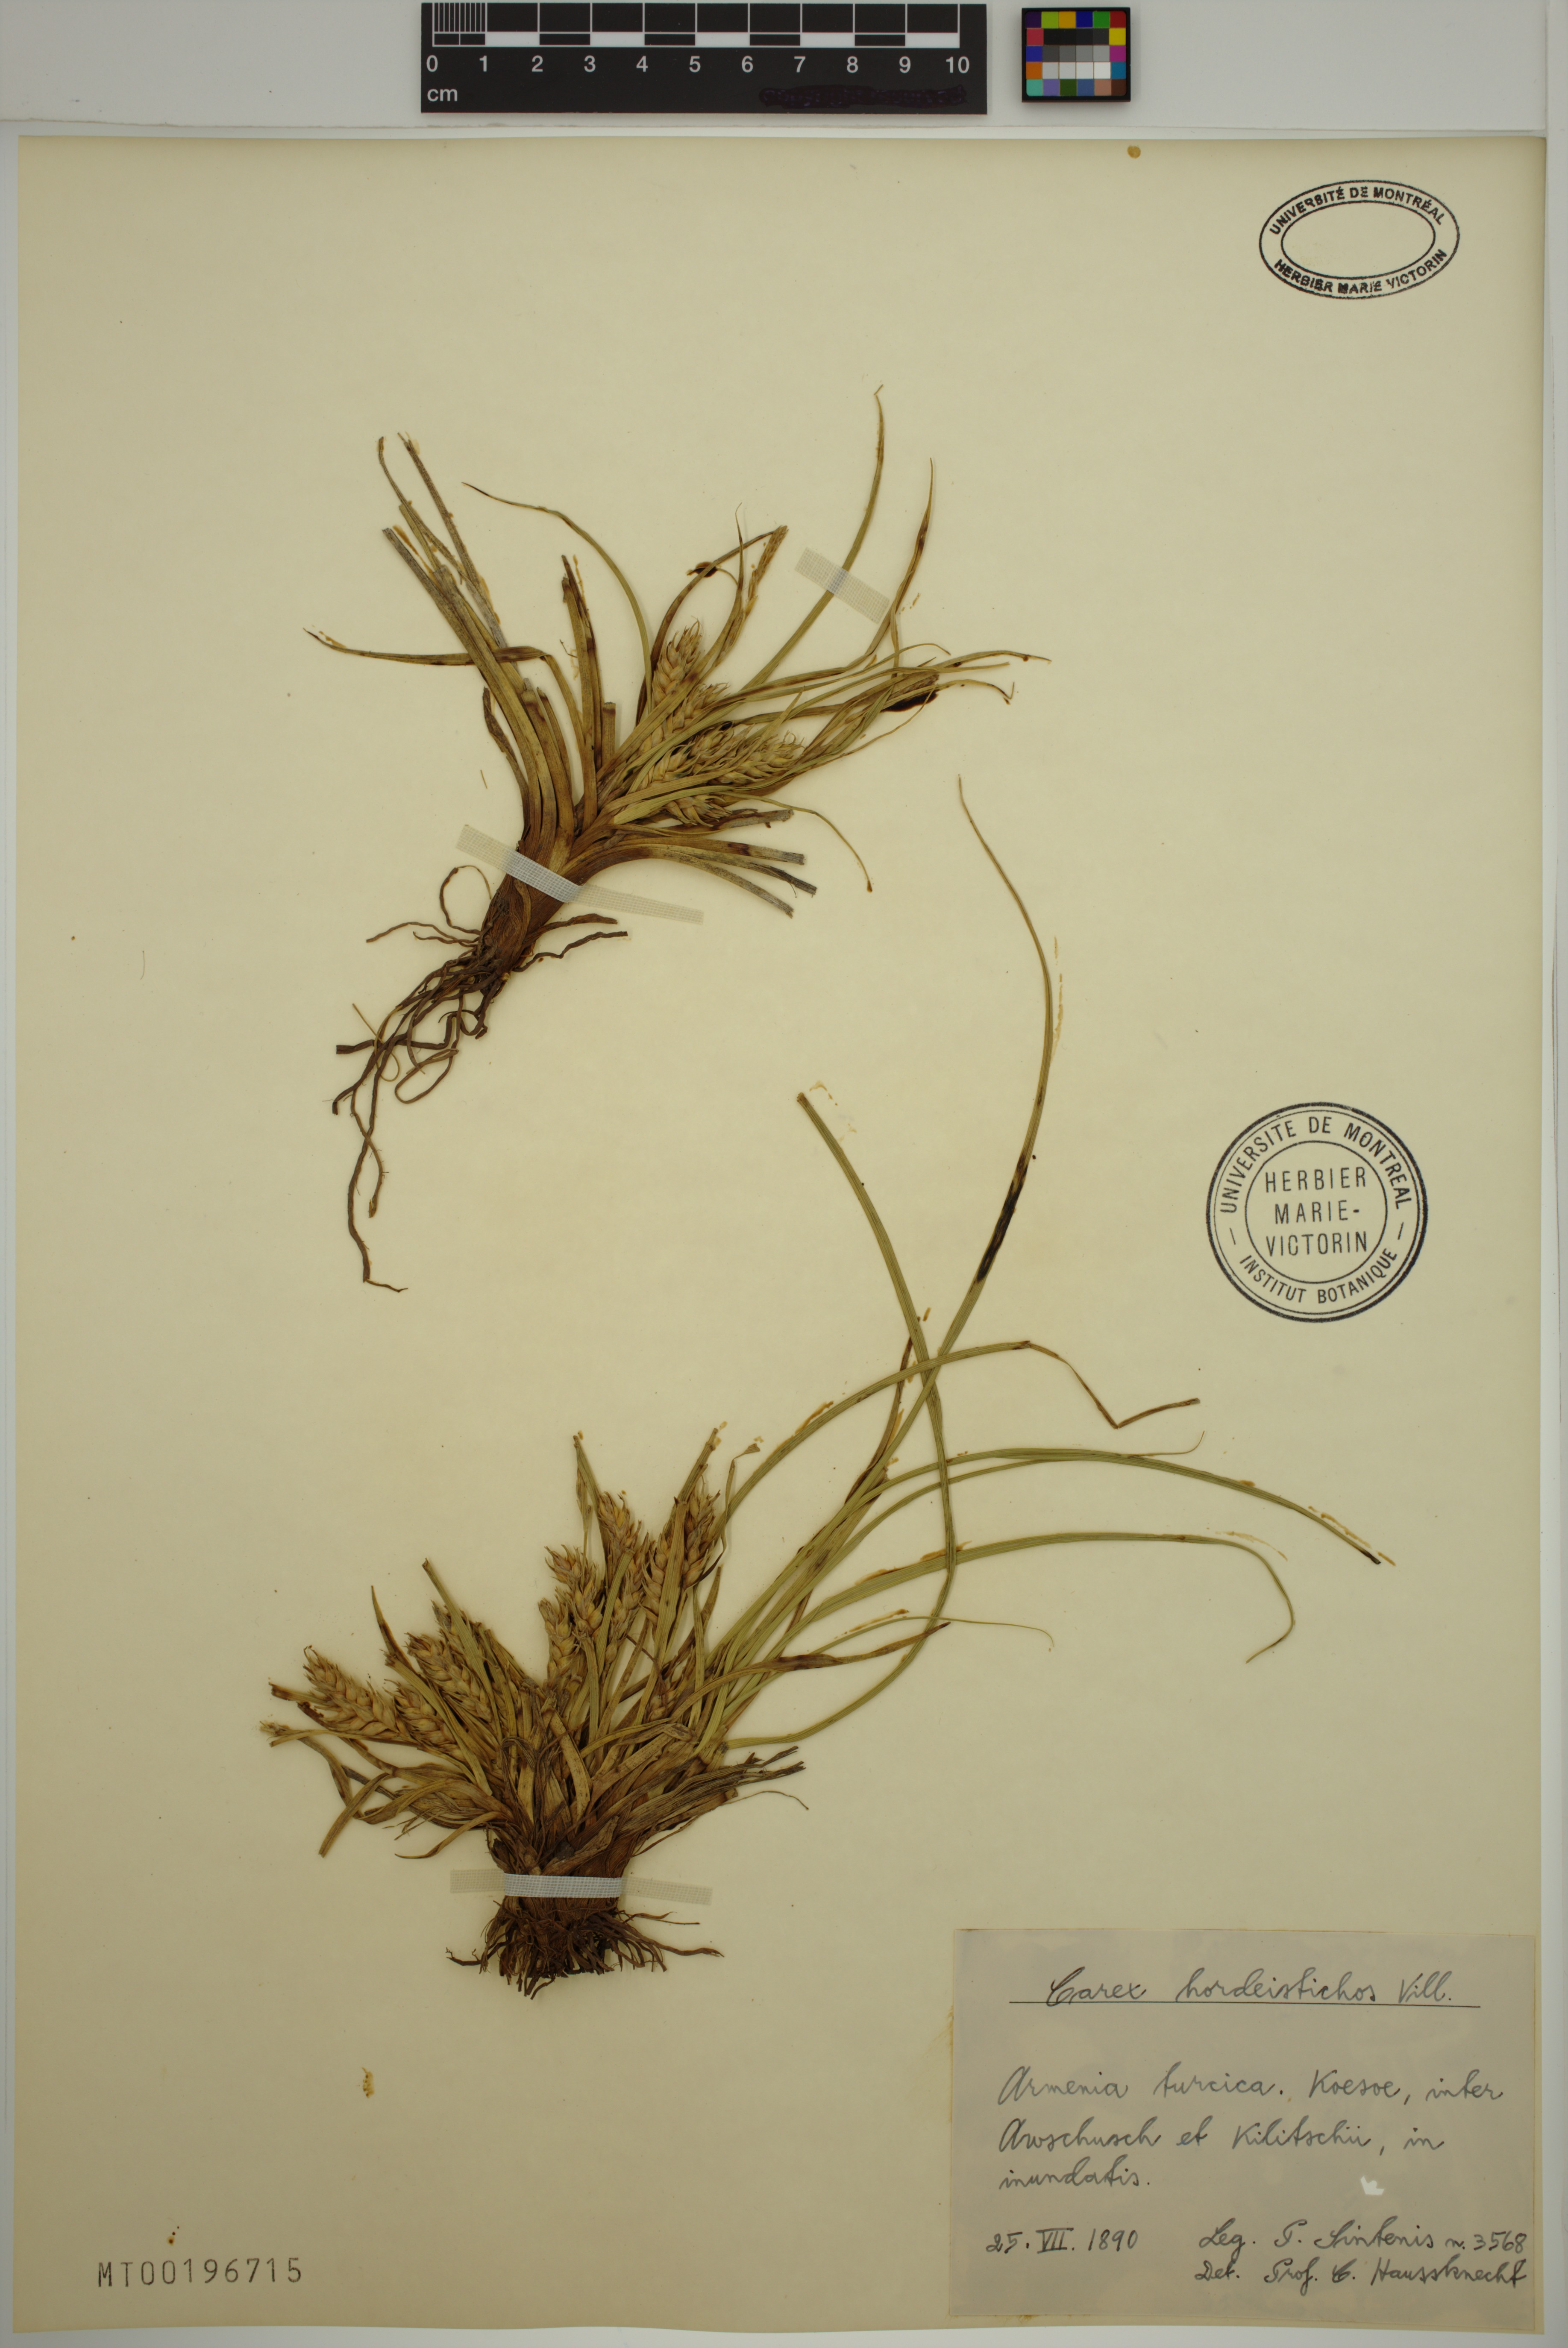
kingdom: Plantae
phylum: Tracheophyta
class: Liliopsida
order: Poales
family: Cyperaceae
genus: Carex
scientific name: Carex hordeistichos
